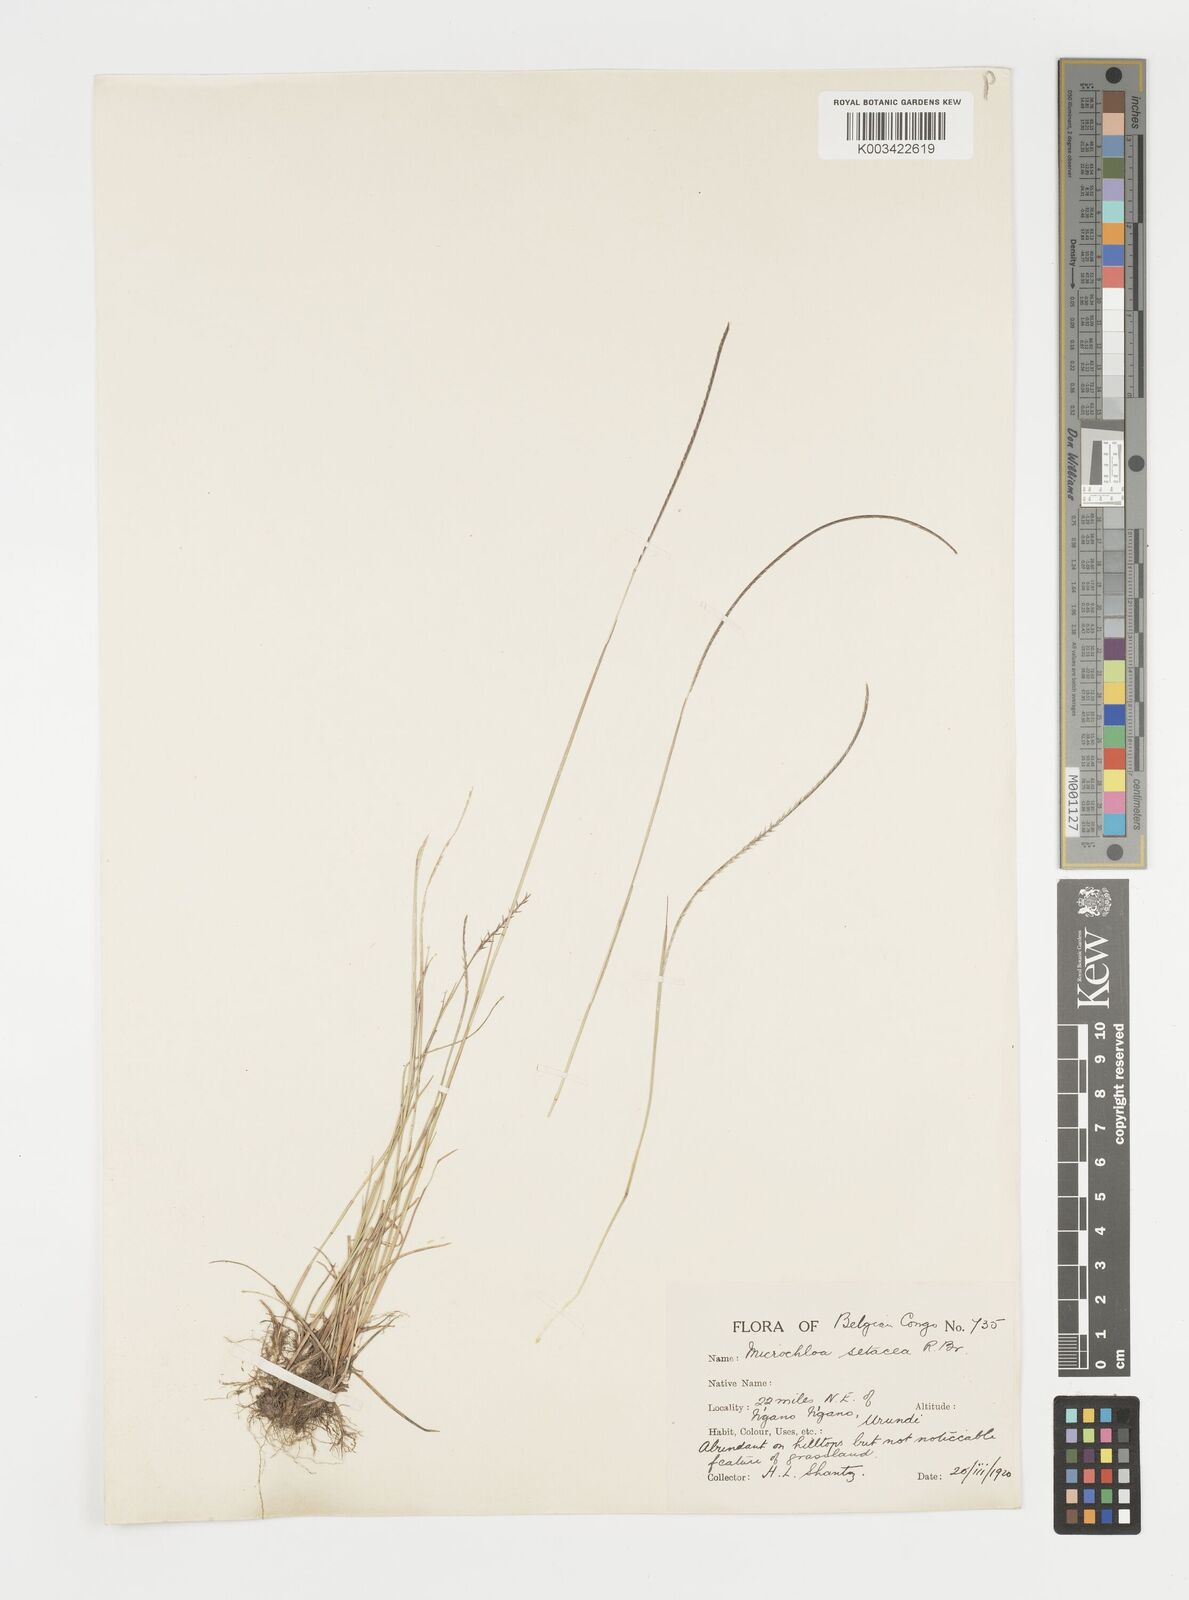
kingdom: Plantae
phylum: Tracheophyta
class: Liliopsida
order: Poales
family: Poaceae
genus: Microchloa
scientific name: Microchloa kunthii
